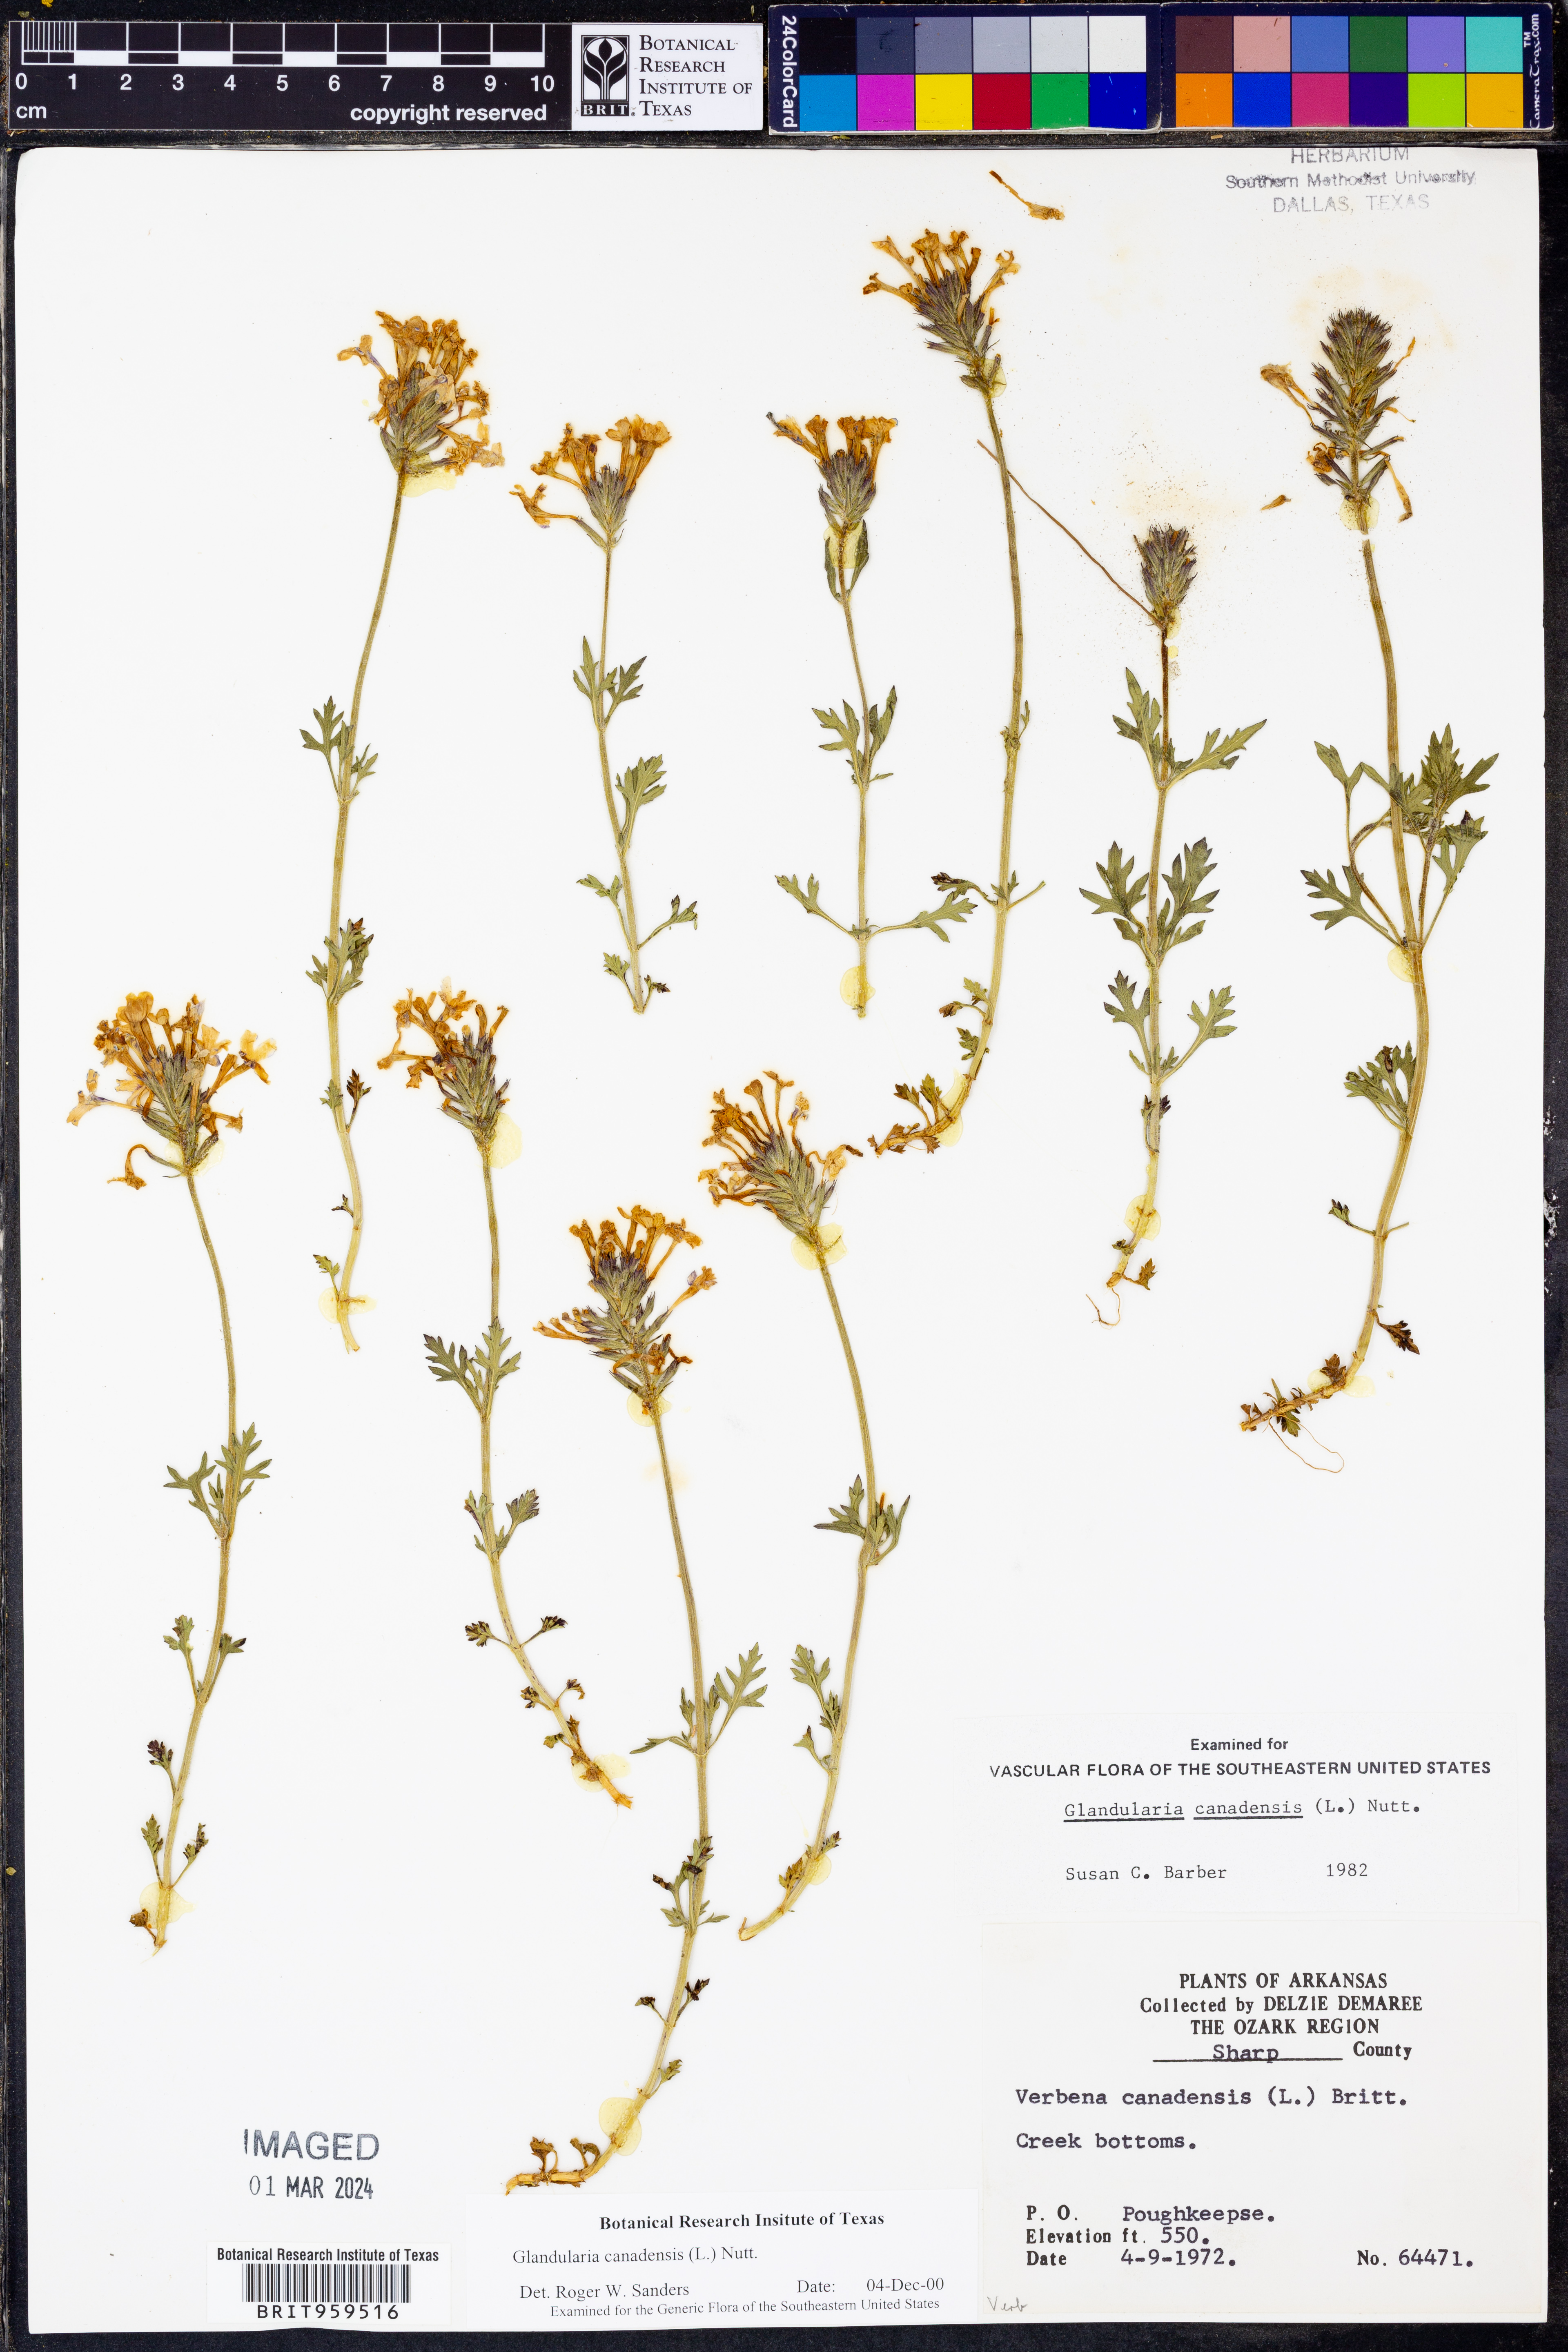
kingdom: Plantae
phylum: Tracheophyta
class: Magnoliopsida
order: Lamiales
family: Verbenaceae
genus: Verbena
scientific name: Verbena canadensis
